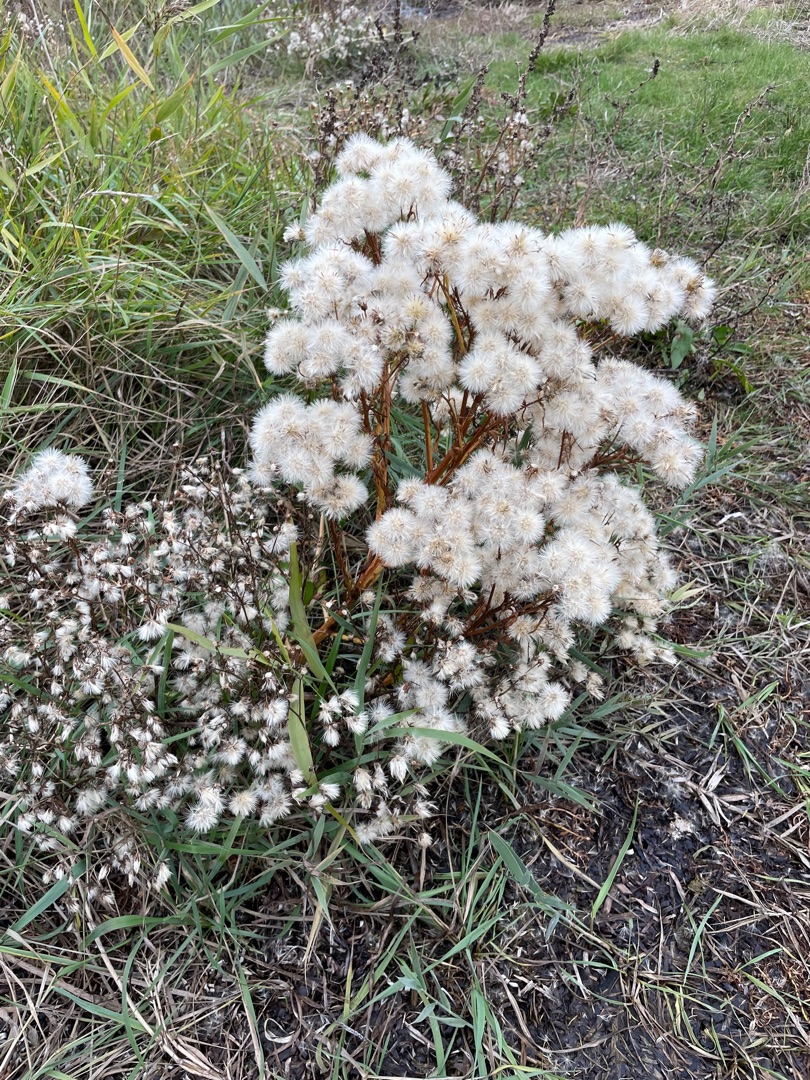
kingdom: Plantae
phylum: Tracheophyta
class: Magnoliopsida
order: Asterales
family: Asteraceae
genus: Tripolium
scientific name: Tripolium pannonicum
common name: Strandasters
